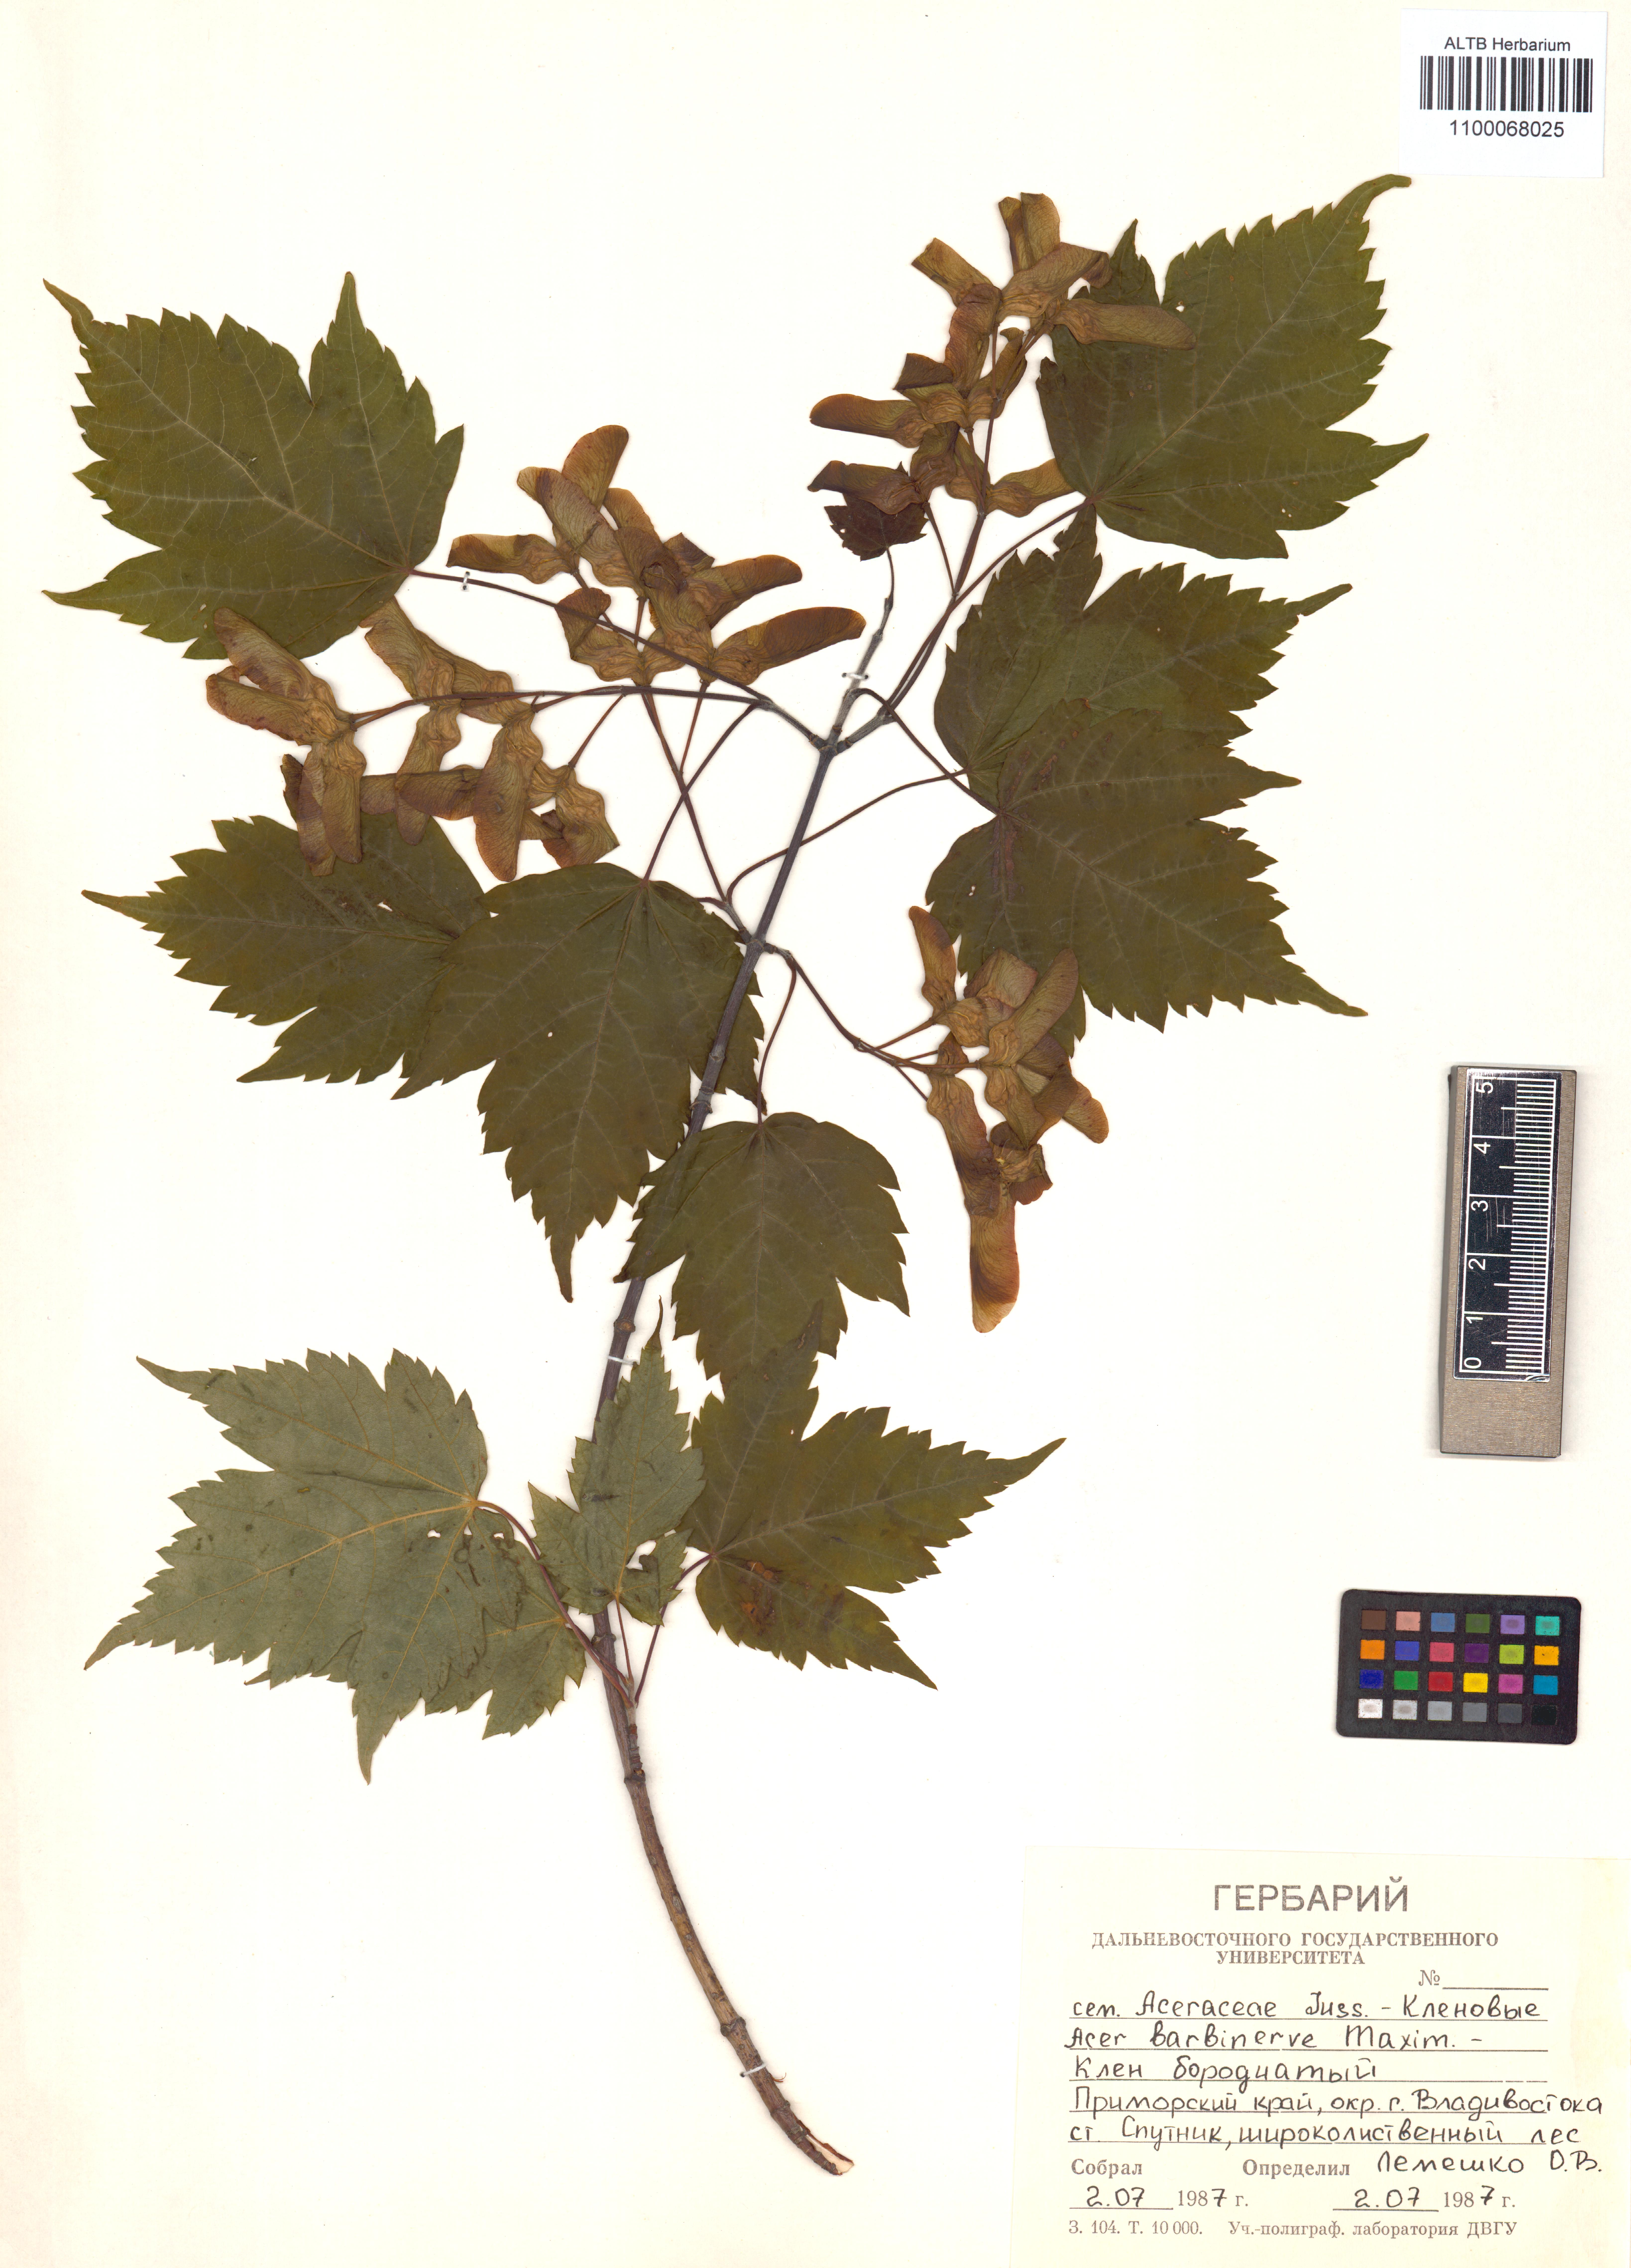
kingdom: Plantae
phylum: Tracheophyta
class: Magnoliopsida
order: Sapindales
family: Sapindaceae
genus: Acer
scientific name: Acer barbinerve
